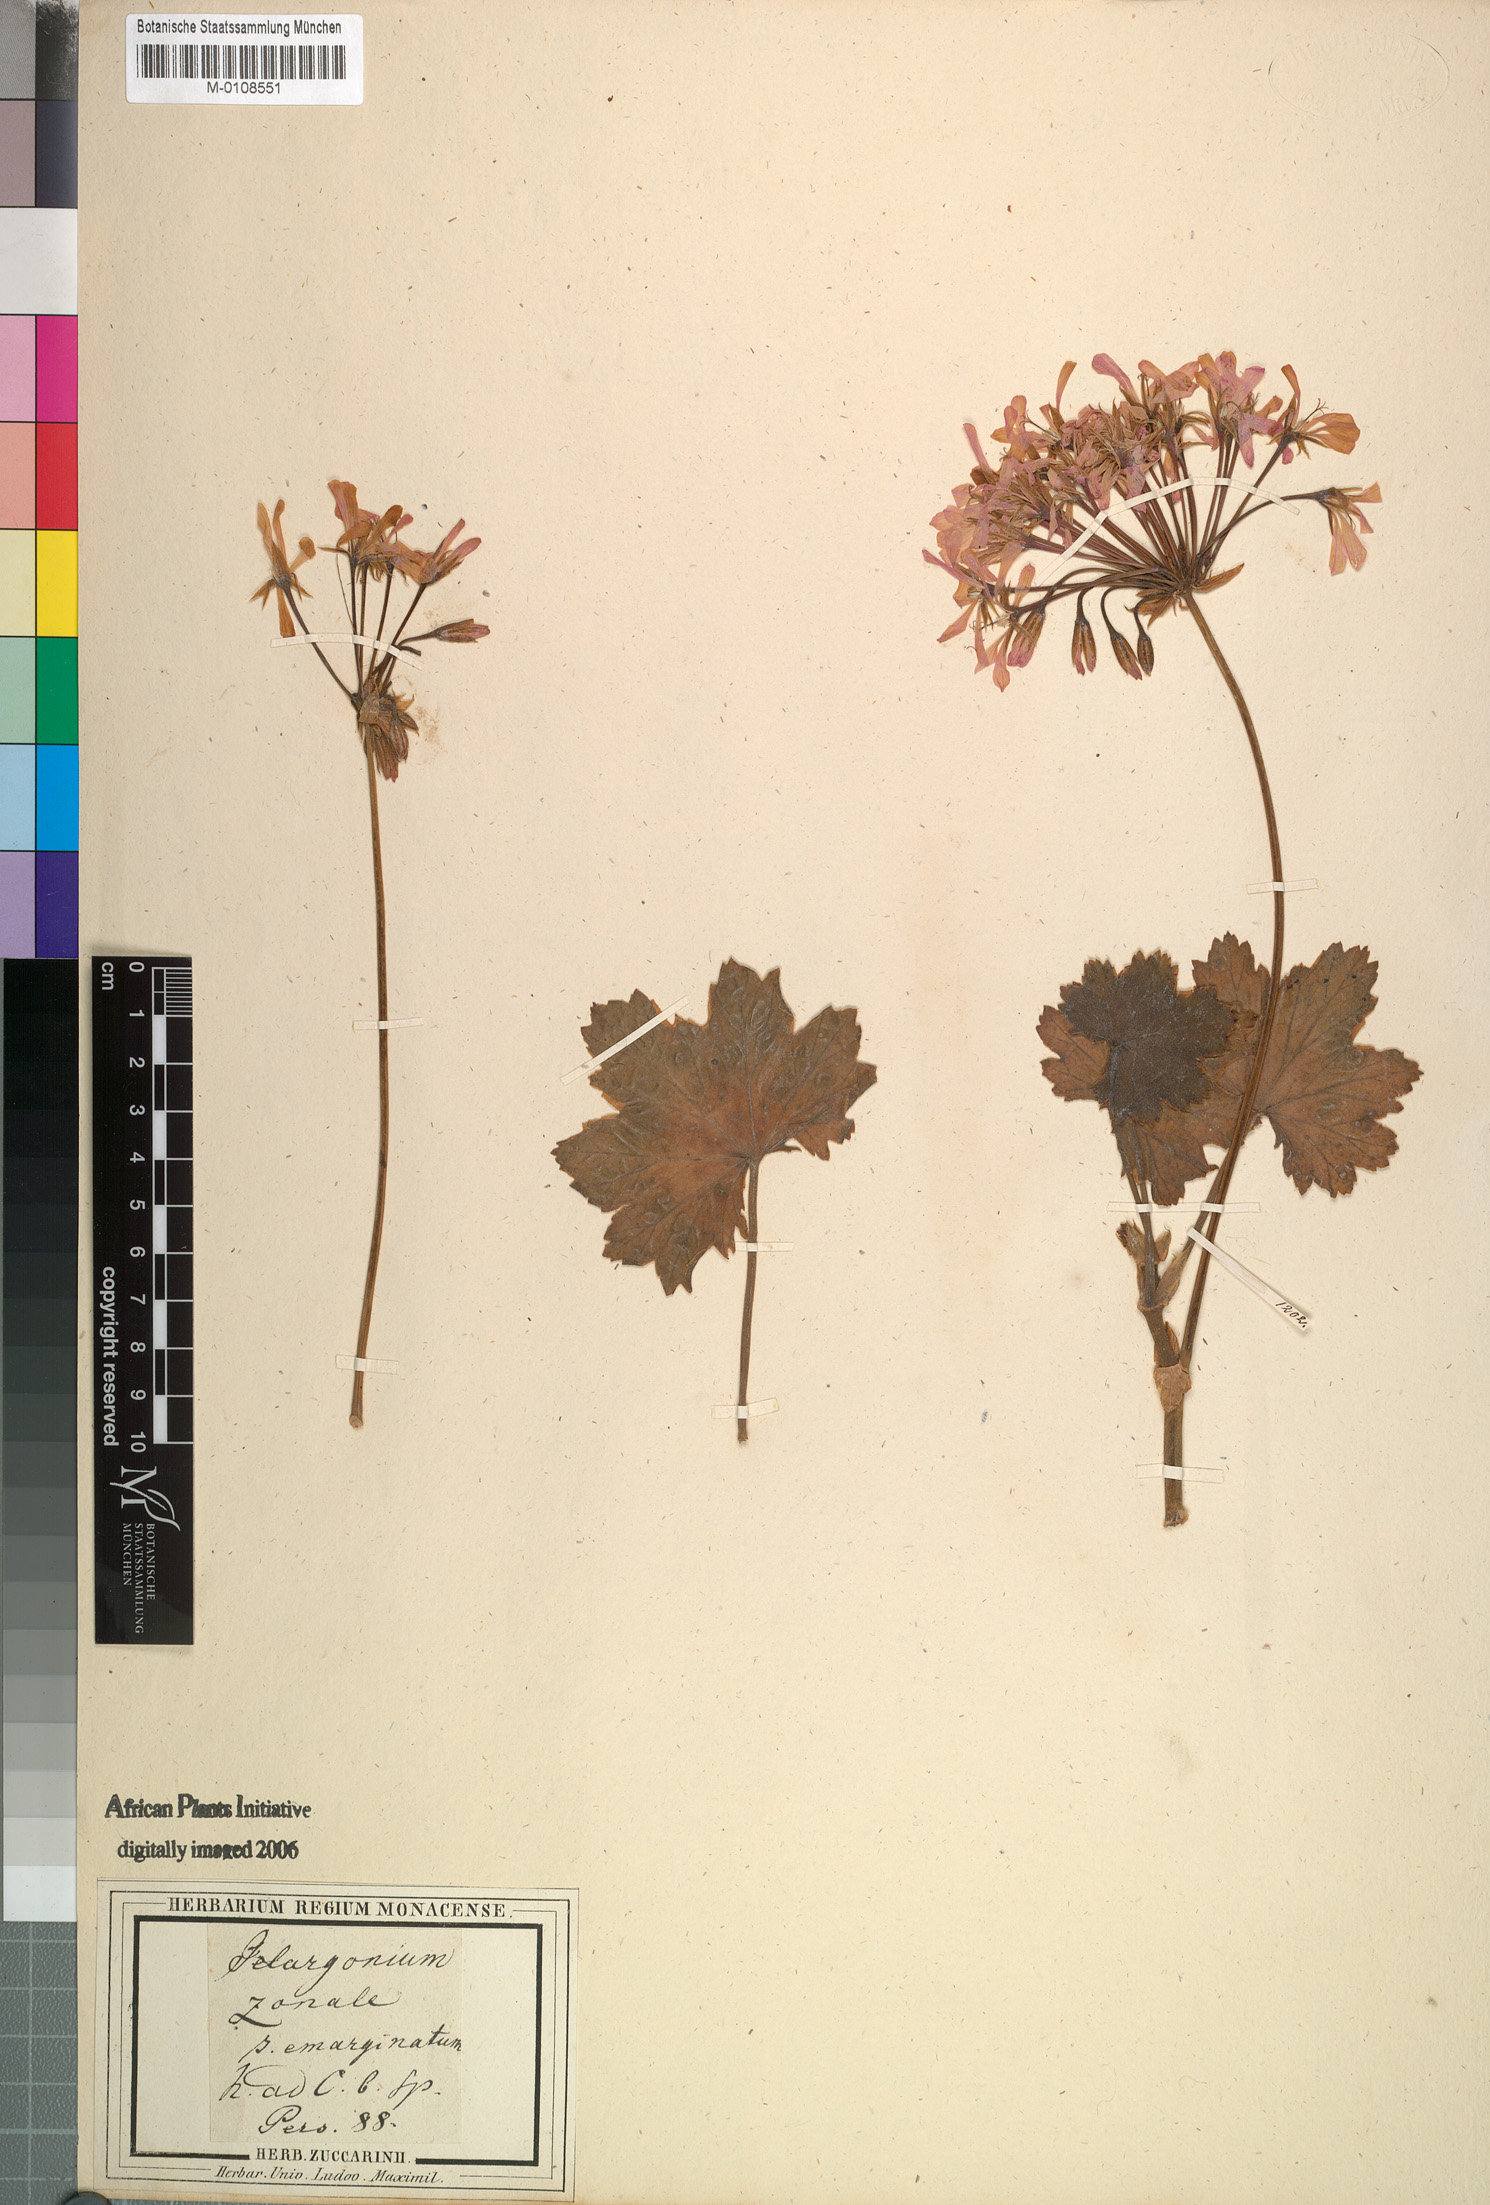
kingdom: Plantae
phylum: Tracheophyta
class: Magnoliopsida
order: Geraniales
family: Geraniaceae
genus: Pelargonium
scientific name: Pelargonium zonale
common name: Horseshoe geranium
